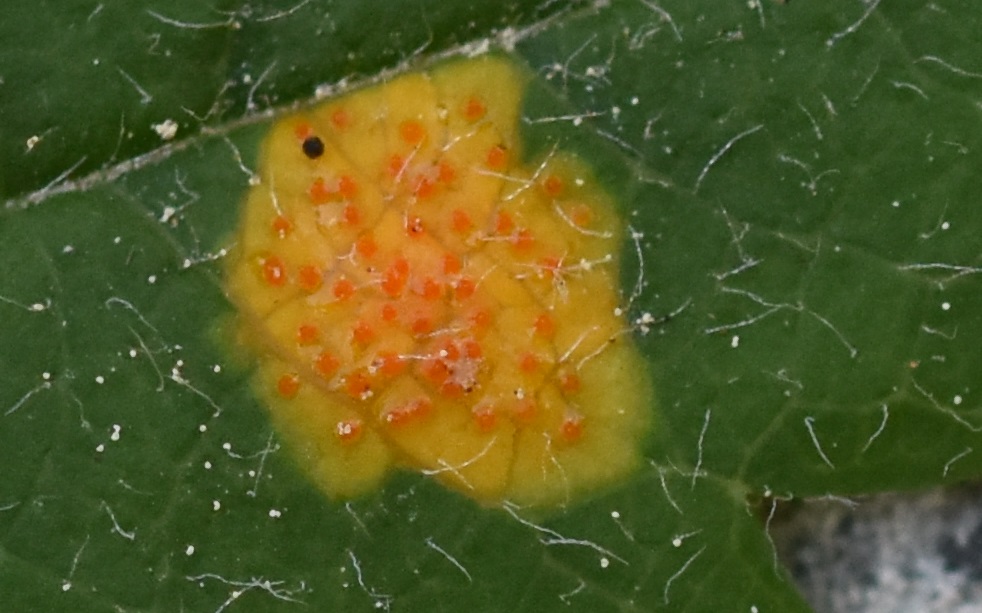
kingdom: Fungi
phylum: Basidiomycota
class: Pucciniomycetes
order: Pucciniales
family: Gymnosporangiaceae
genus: Gymnosporangium
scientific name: Gymnosporangium cornutum
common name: rønnehorn-bævrerust
